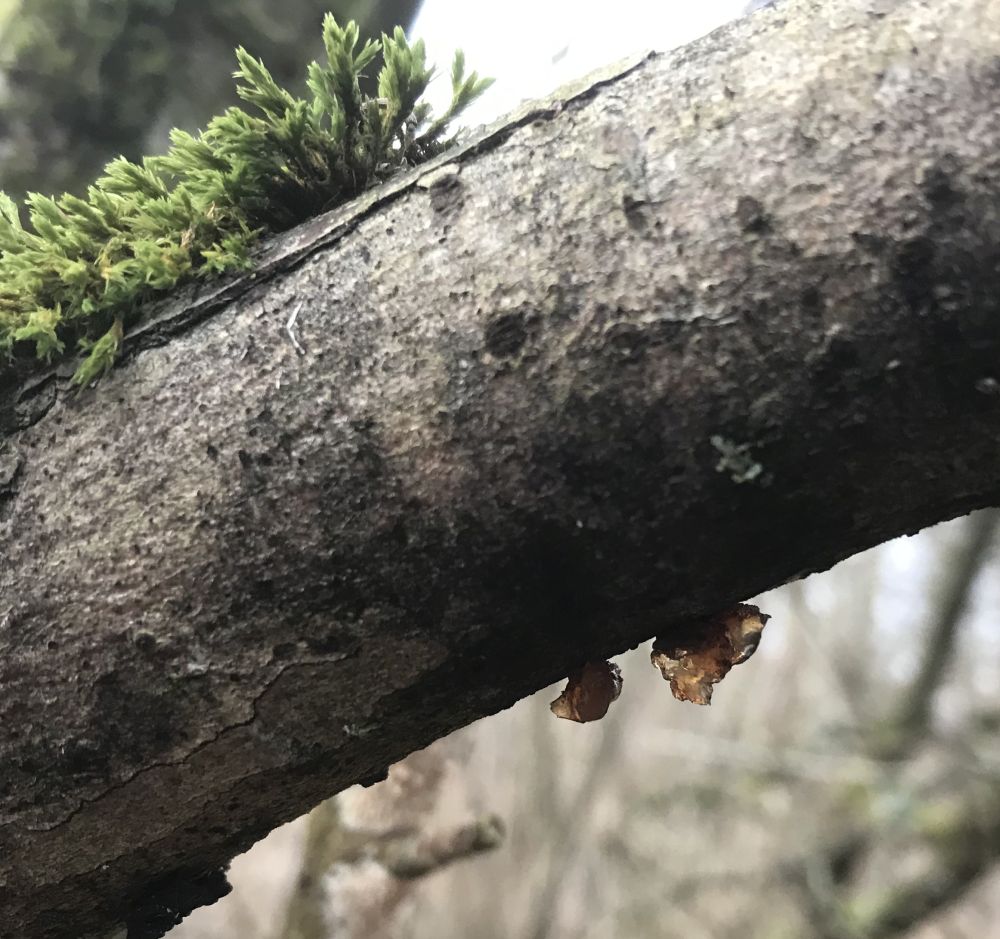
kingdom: Fungi
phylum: Basidiomycota
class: Agaricomycetes
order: Auriculariales
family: Auriculariaceae
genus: Exidia
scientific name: Exidia recisa
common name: pile-bævretop
